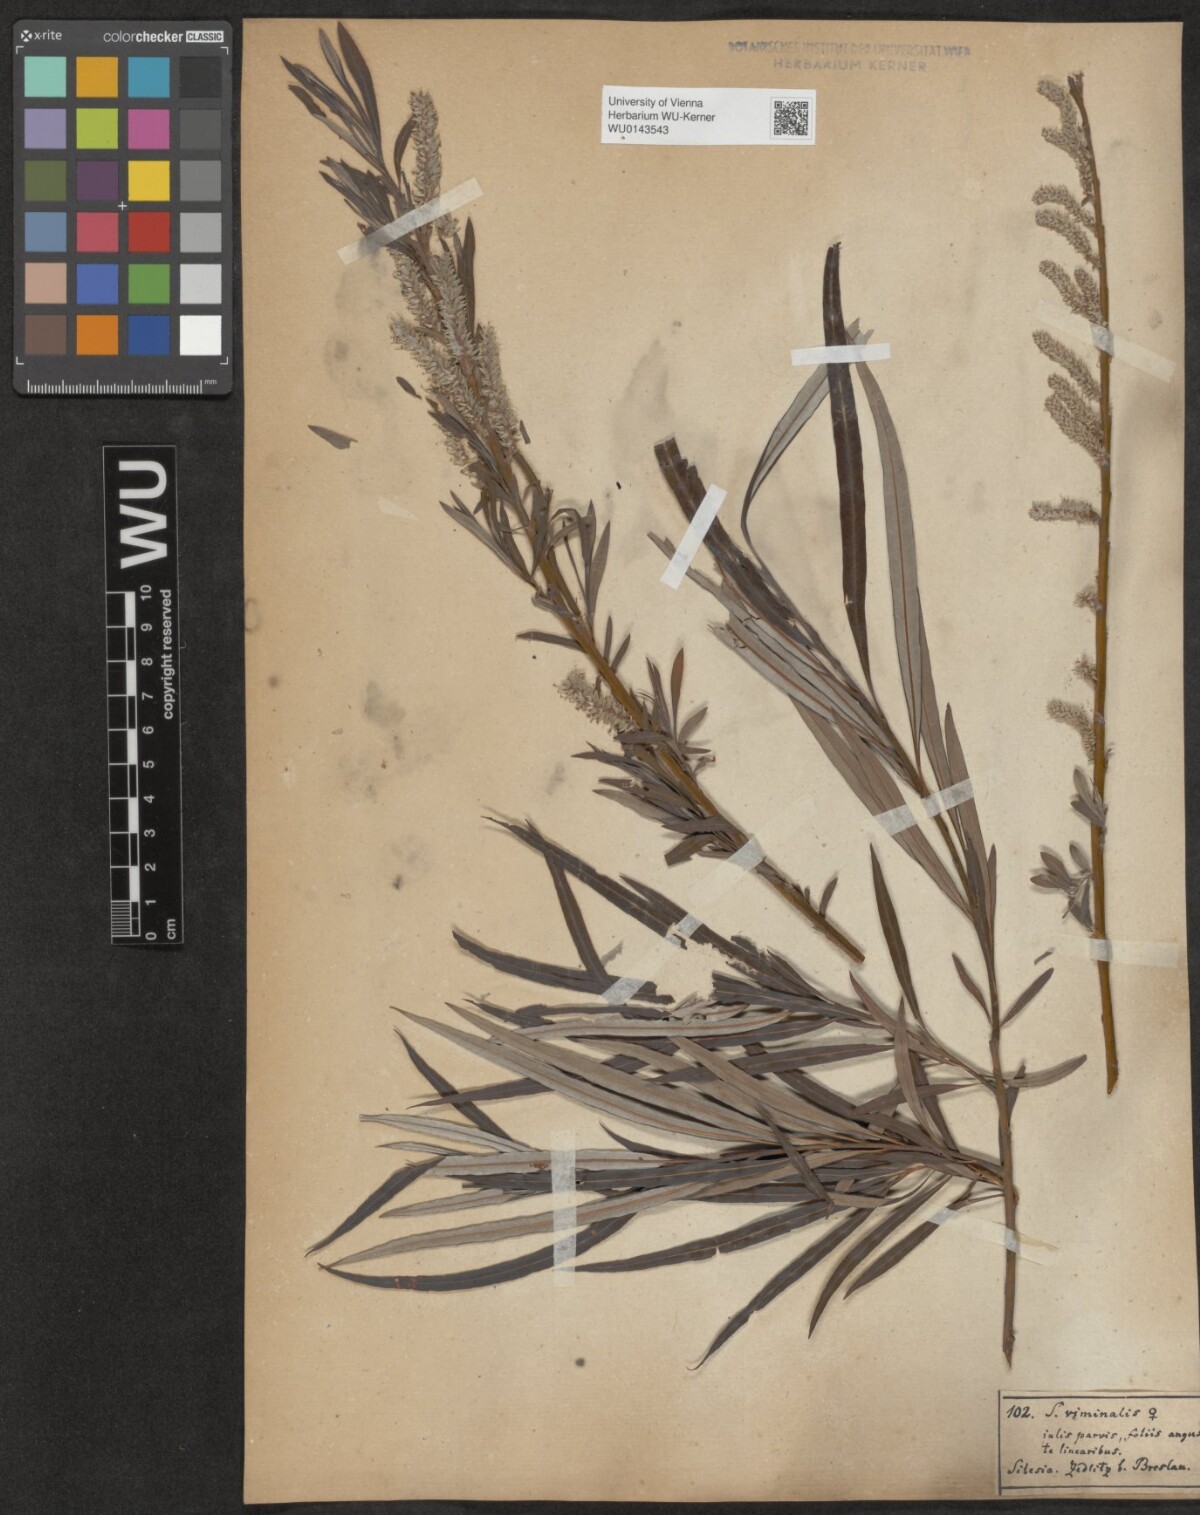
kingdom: Plantae
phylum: Tracheophyta
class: Magnoliopsida
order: Malpighiales
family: Salicaceae
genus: Salix
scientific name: Salix viminalis
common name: Osier
